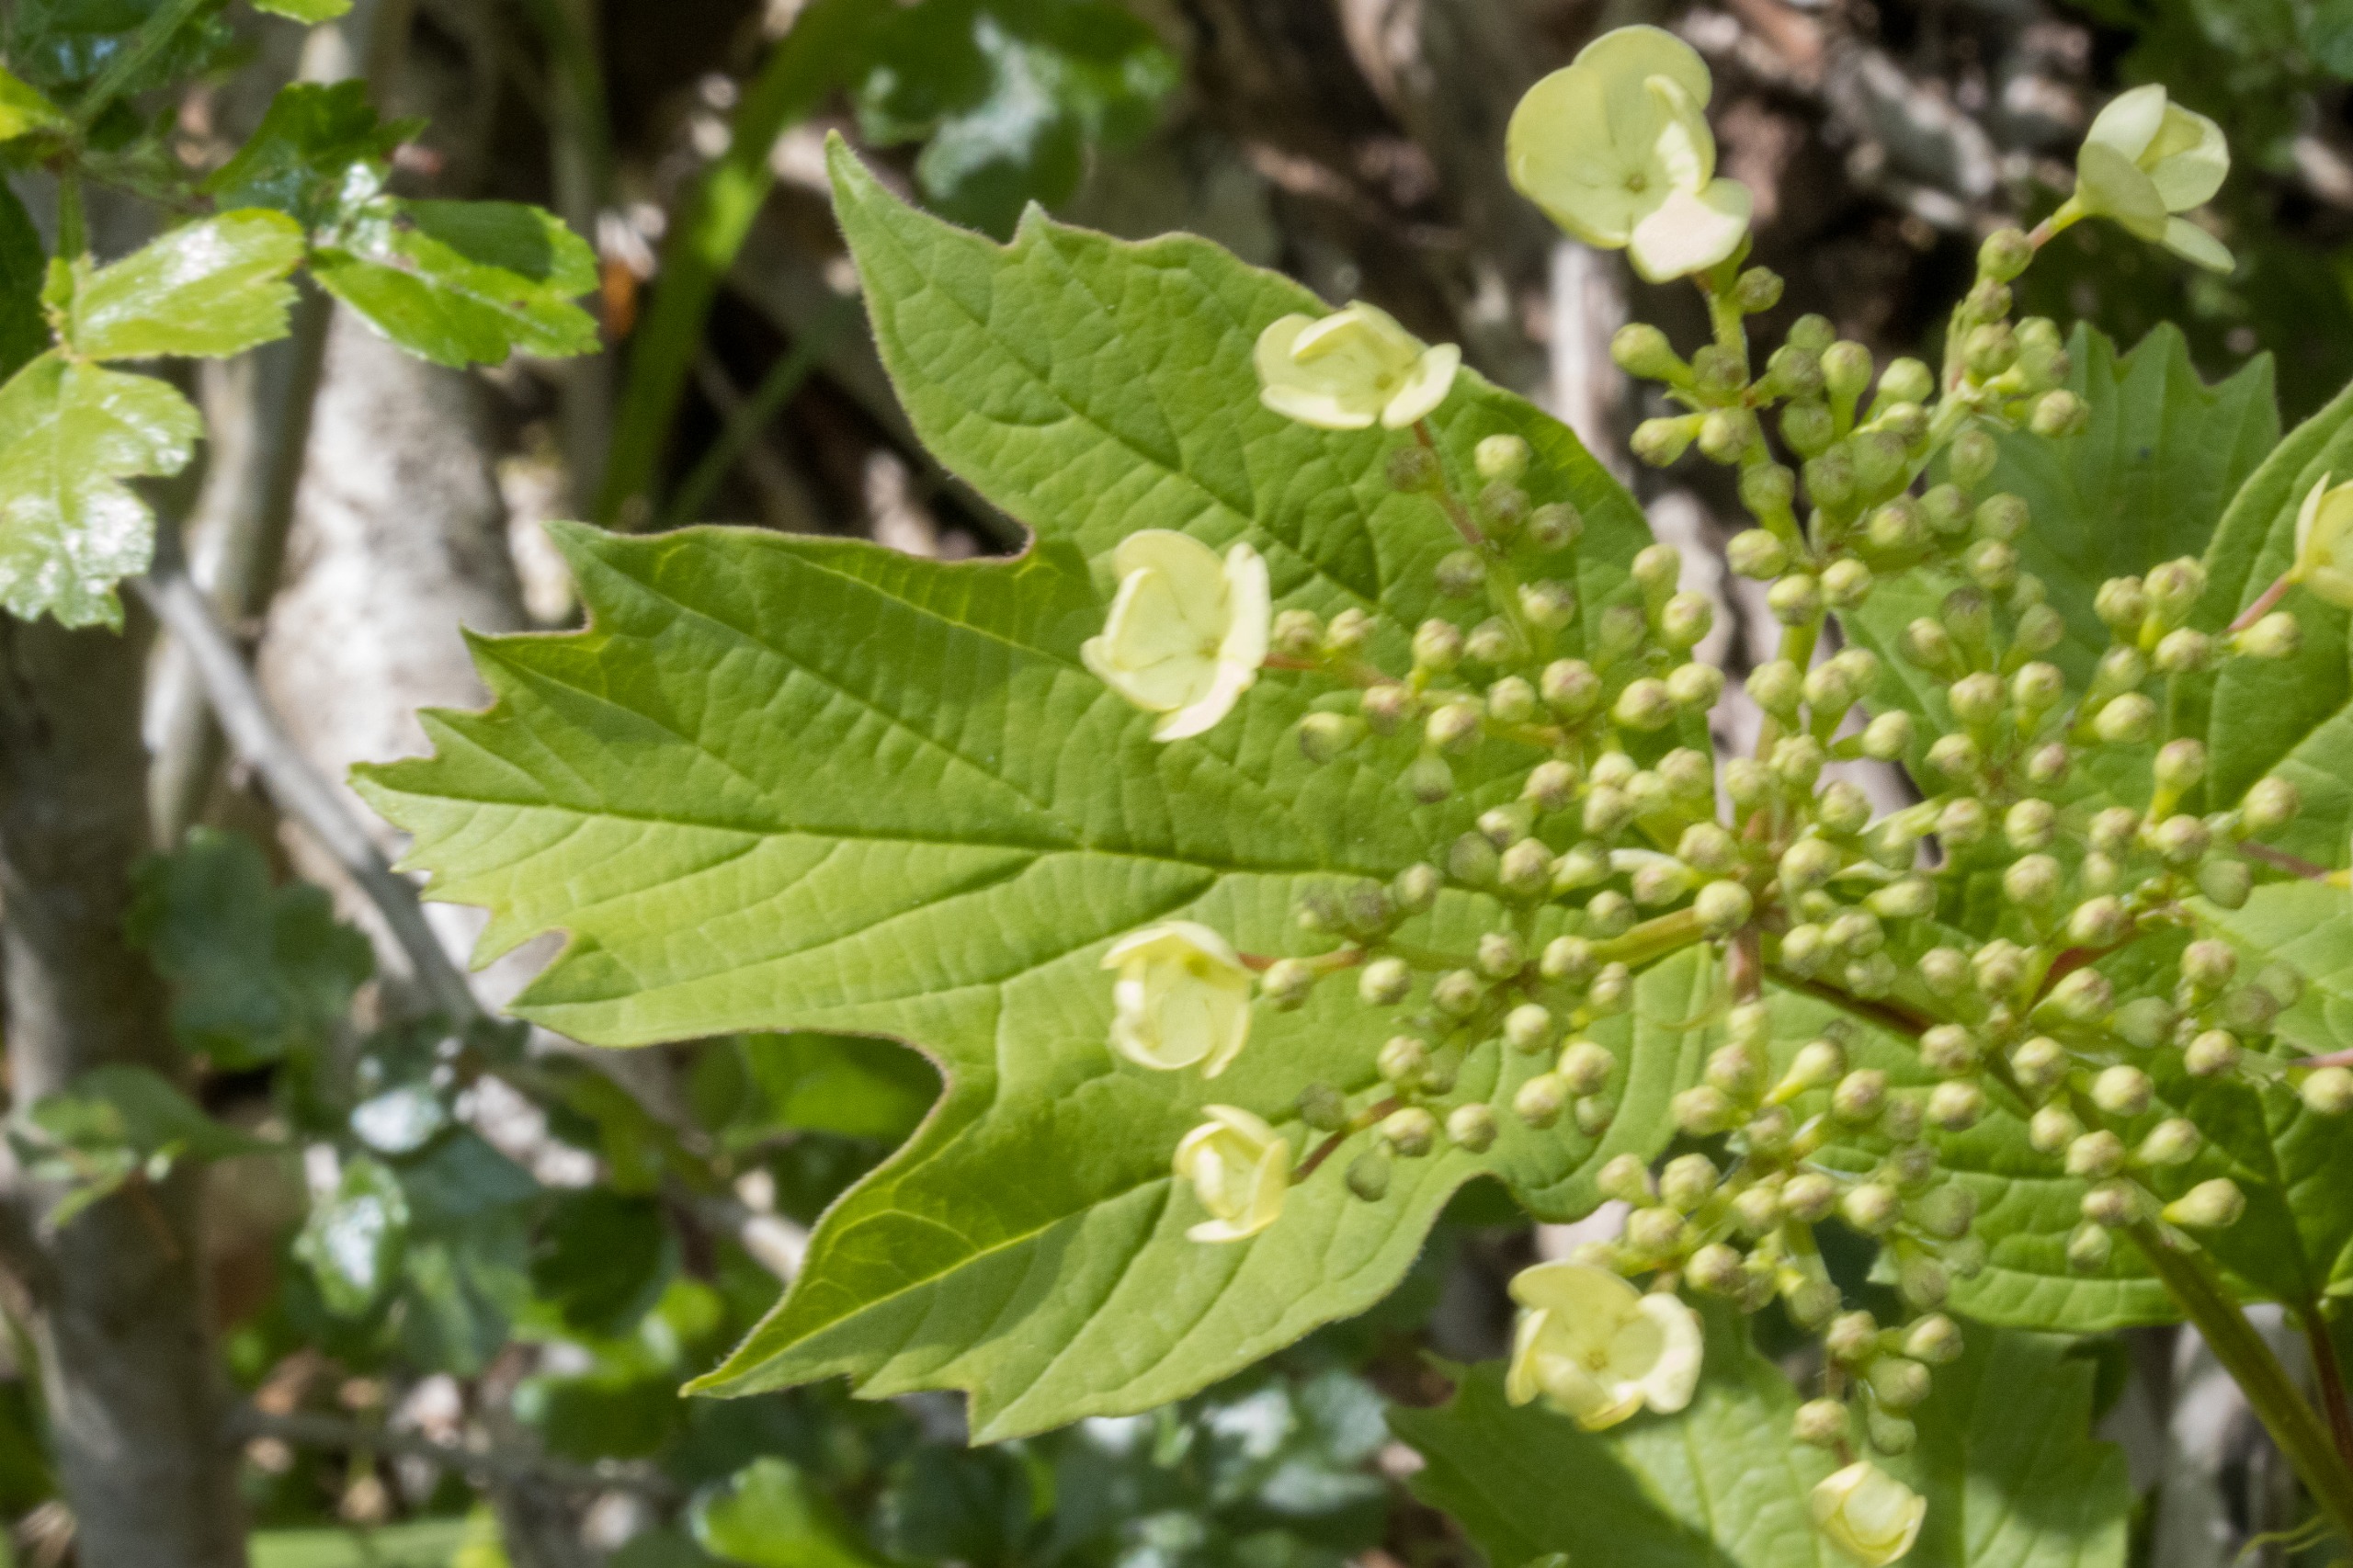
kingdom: Plantae
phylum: Tracheophyta
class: Magnoliopsida
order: Dipsacales
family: Viburnaceae
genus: Viburnum
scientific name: Viburnum opulus
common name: Kvalkved
